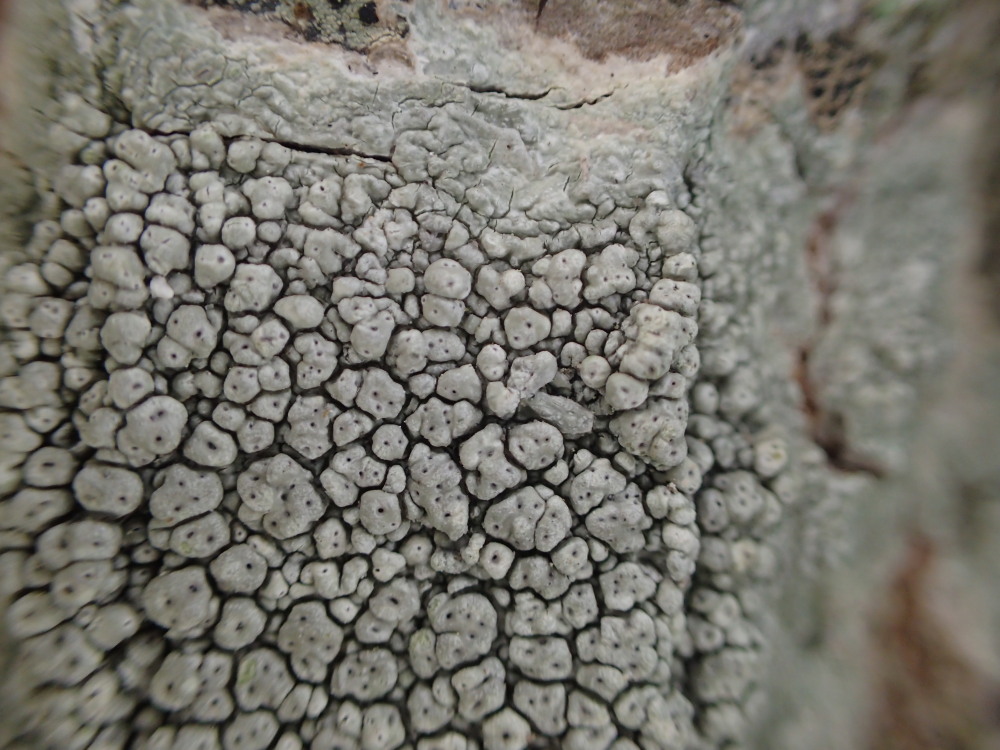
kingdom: Fungi
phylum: Ascomycota
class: Lecanoromycetes
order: Pertusariales
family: Pertusariaceae
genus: Pertusaria
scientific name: Pertusaria pertusa
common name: almindelig prikvortelav
